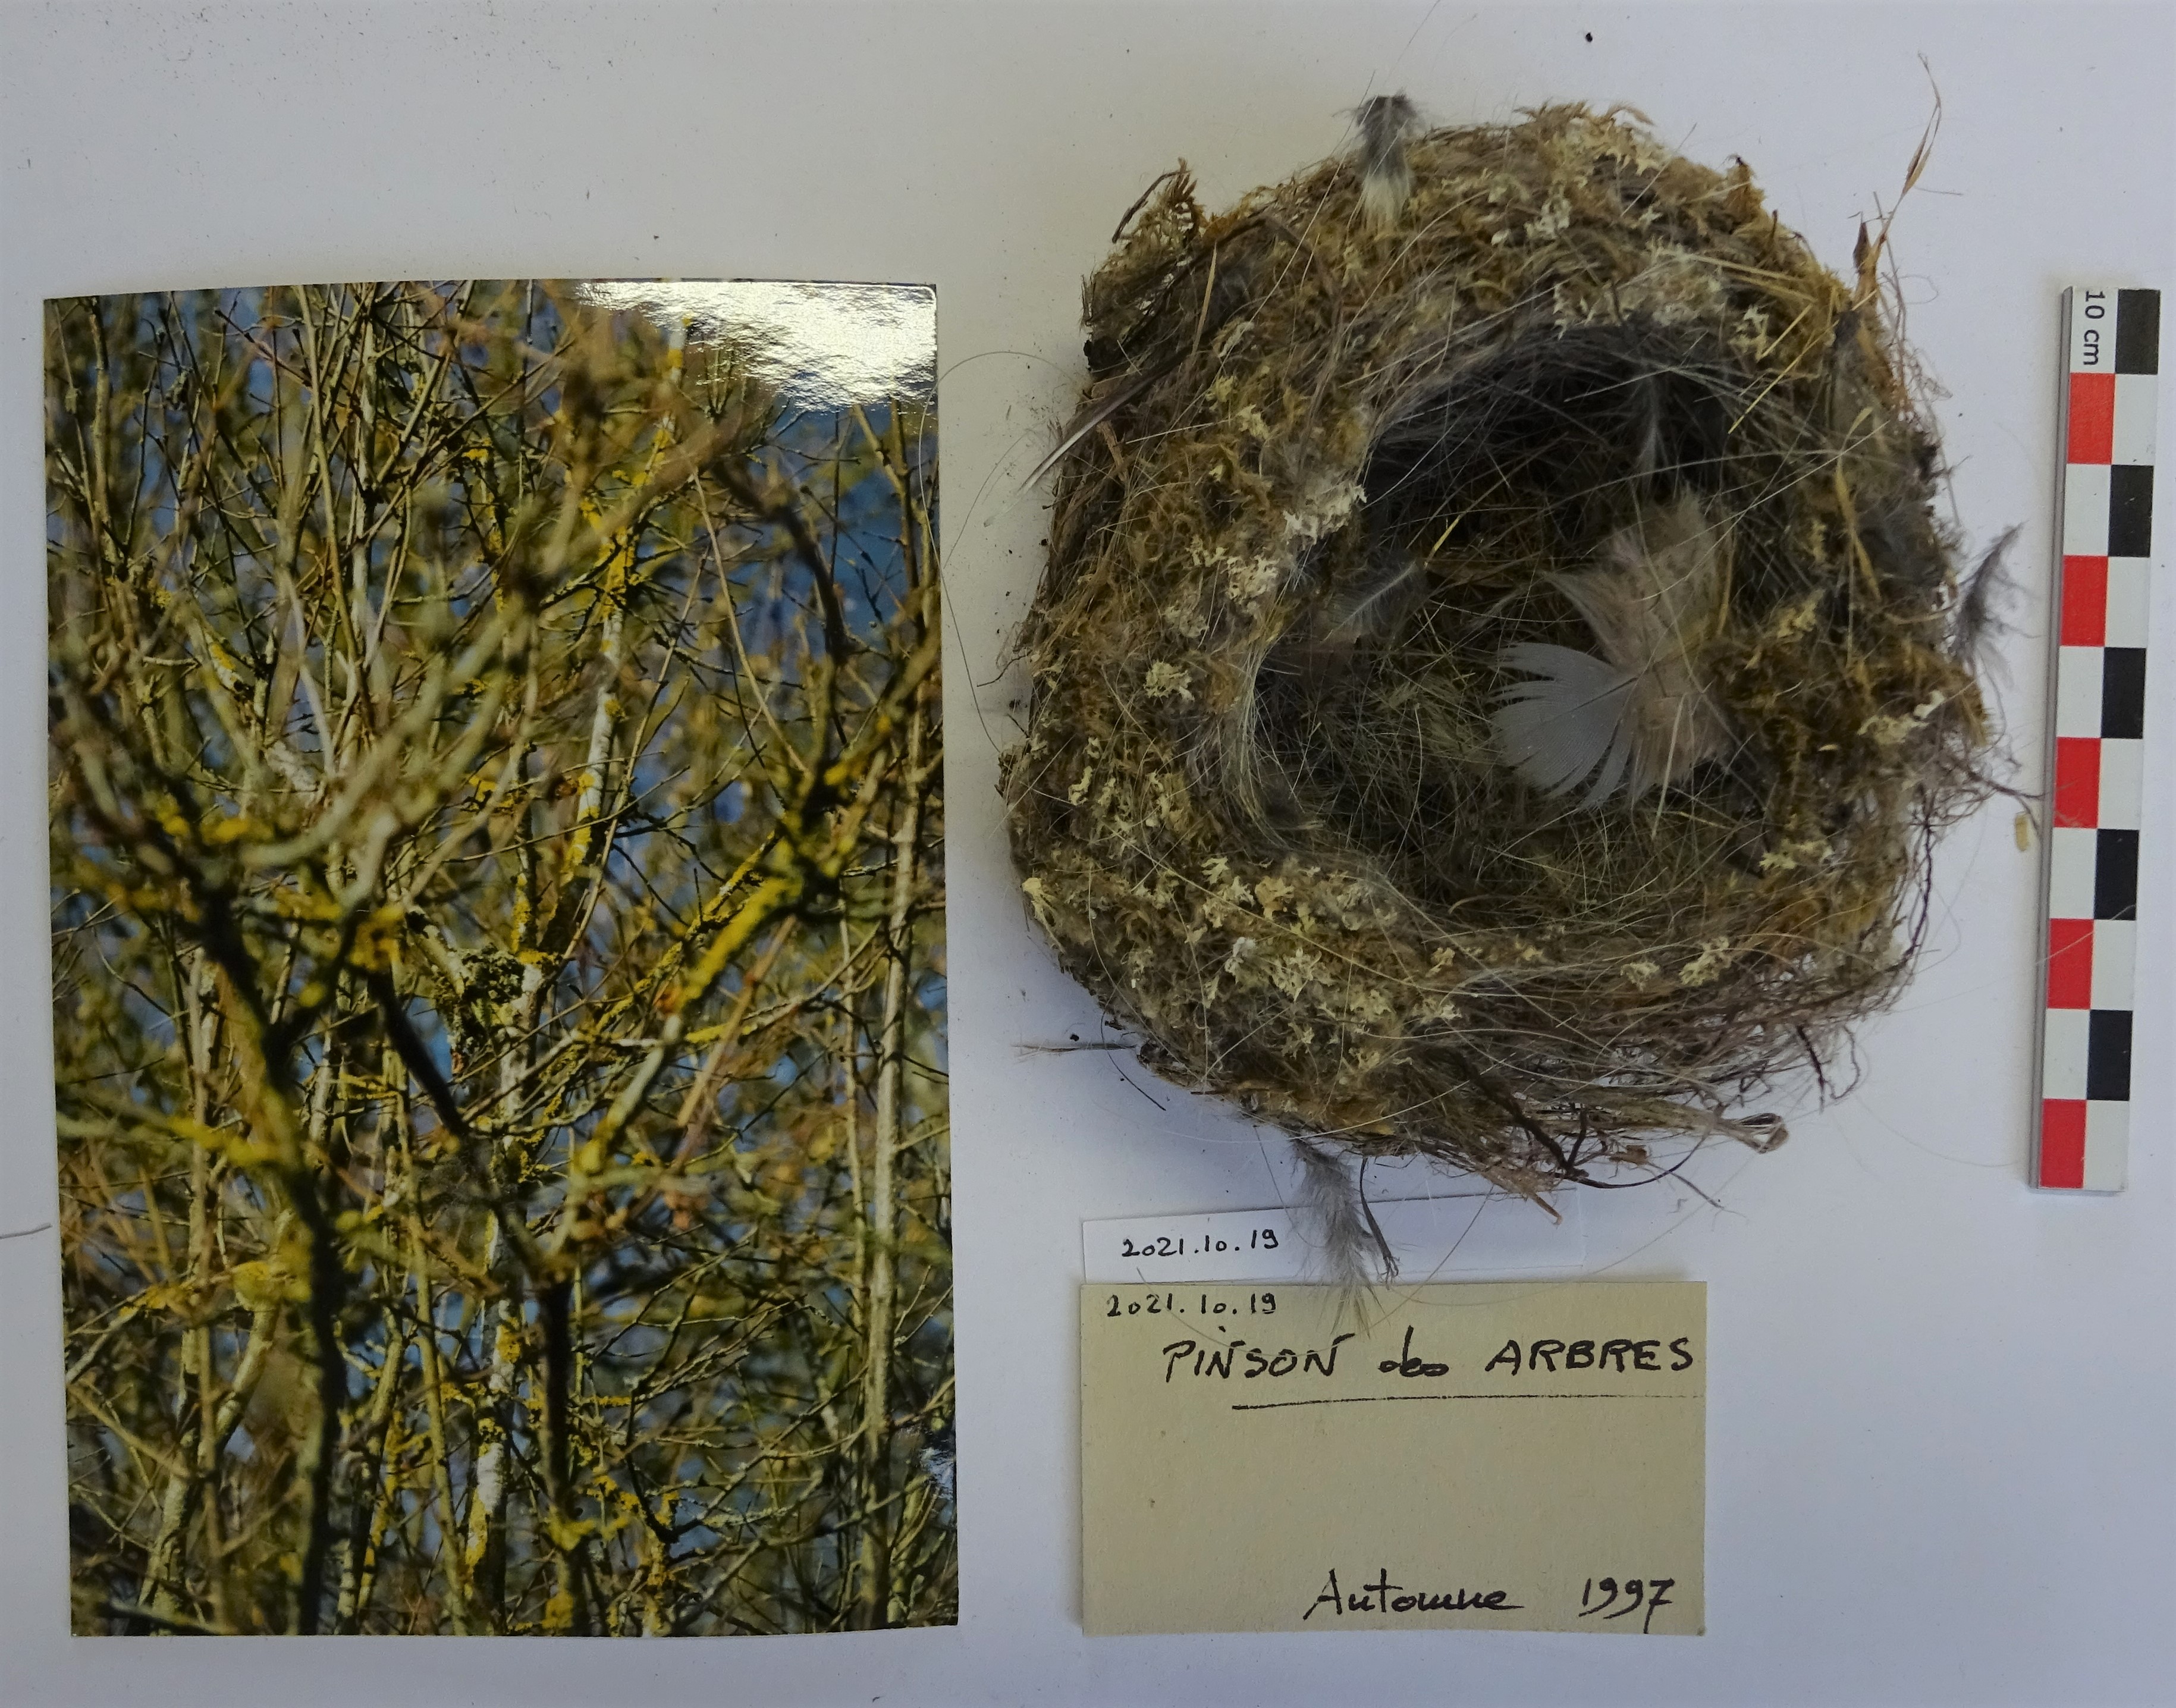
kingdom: Animalia
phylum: Chordata
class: Aves
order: Passeriformes
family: Fringillidae
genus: Fringilla
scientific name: Fringilla coelebs
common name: Common chaffinch
